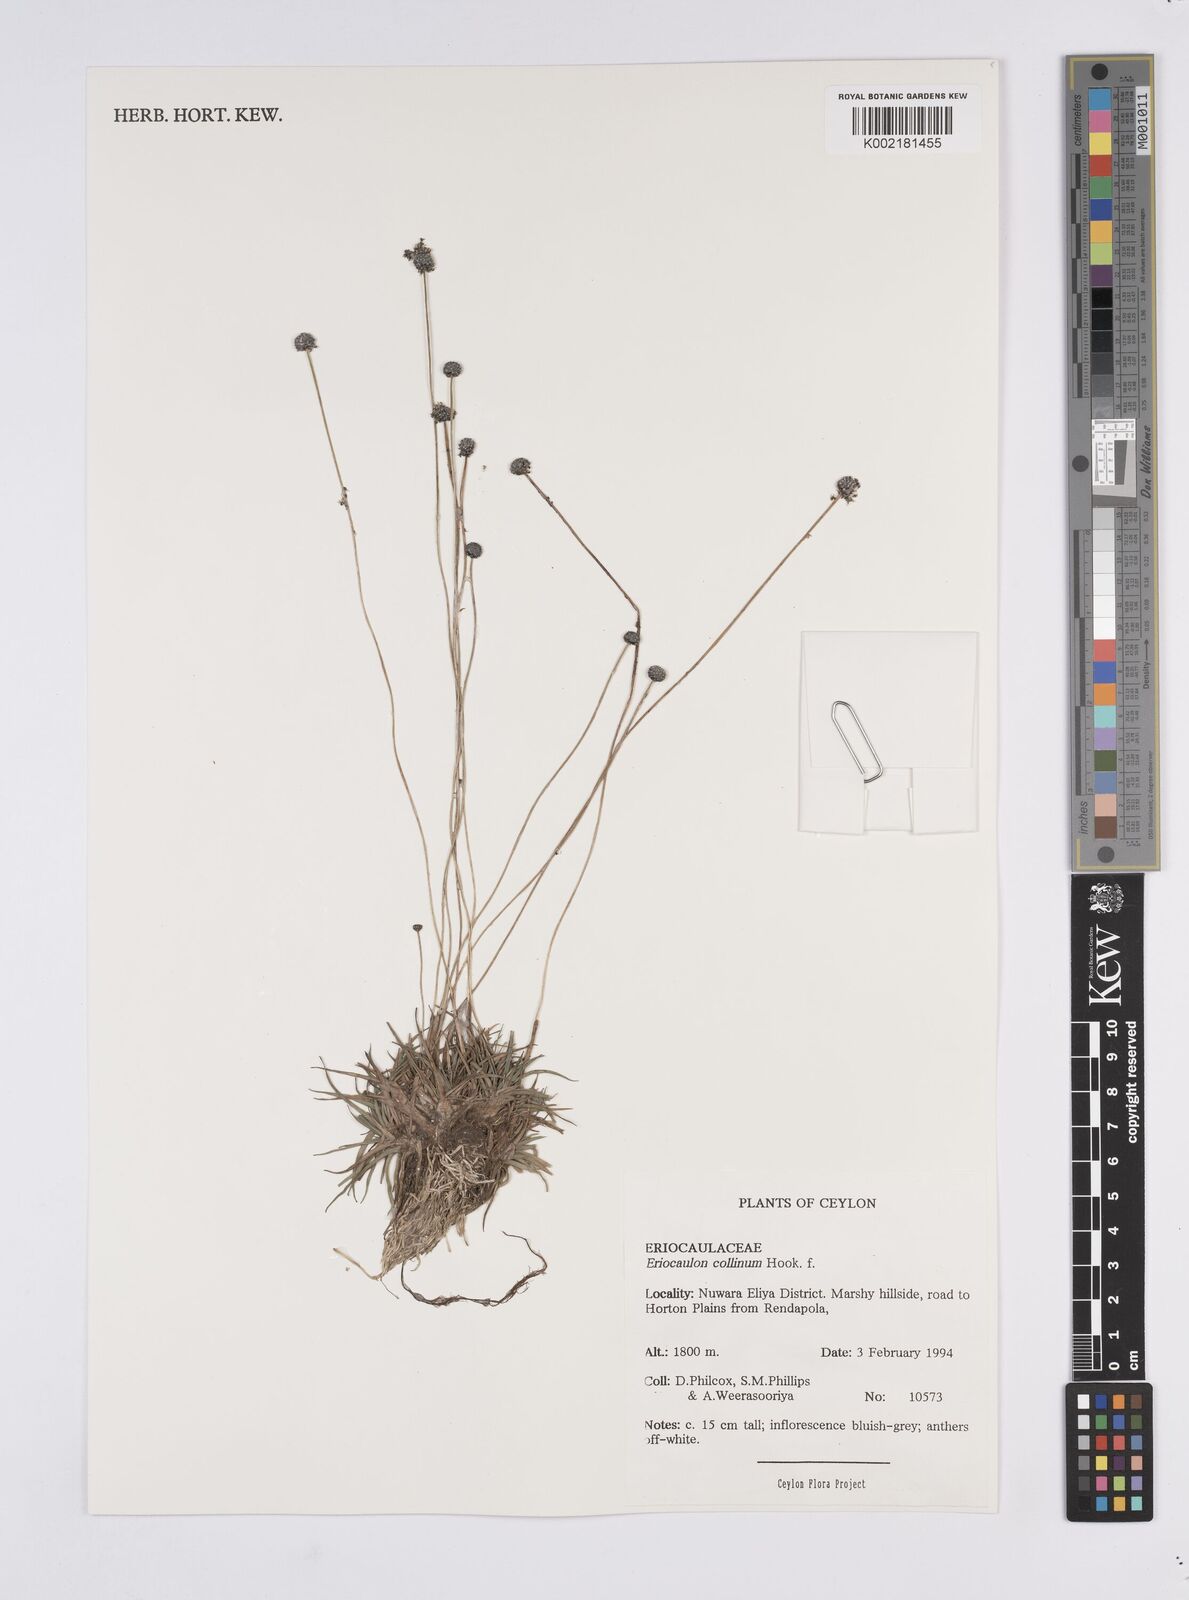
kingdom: Plantae
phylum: Tracheophyta
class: Liliopsida
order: Poales
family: Eriocaulaceae
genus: Eriocaulon
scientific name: Eriocaulon odoratum
